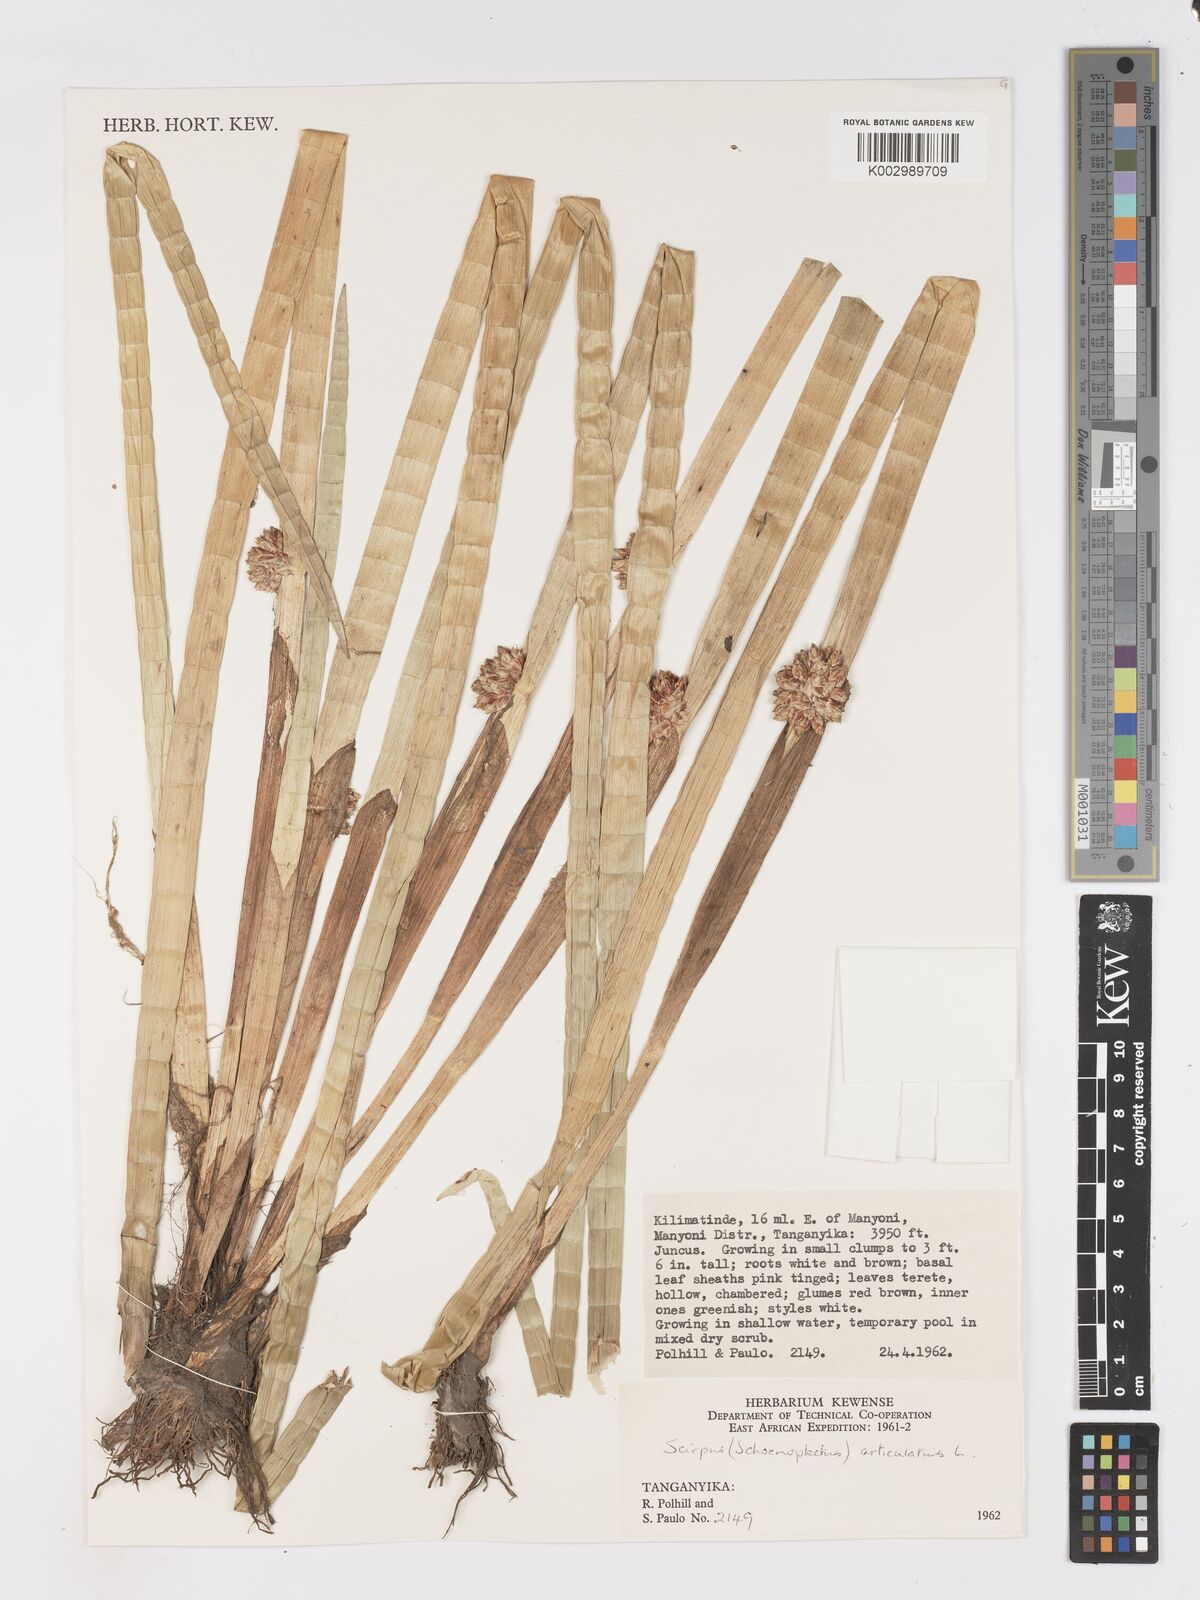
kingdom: Plantae
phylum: Tracheophyta
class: Liliopsida
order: Poales
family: Cyperaceae
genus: Schoenoplectiella
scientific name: Schoenoplectiella articulata
